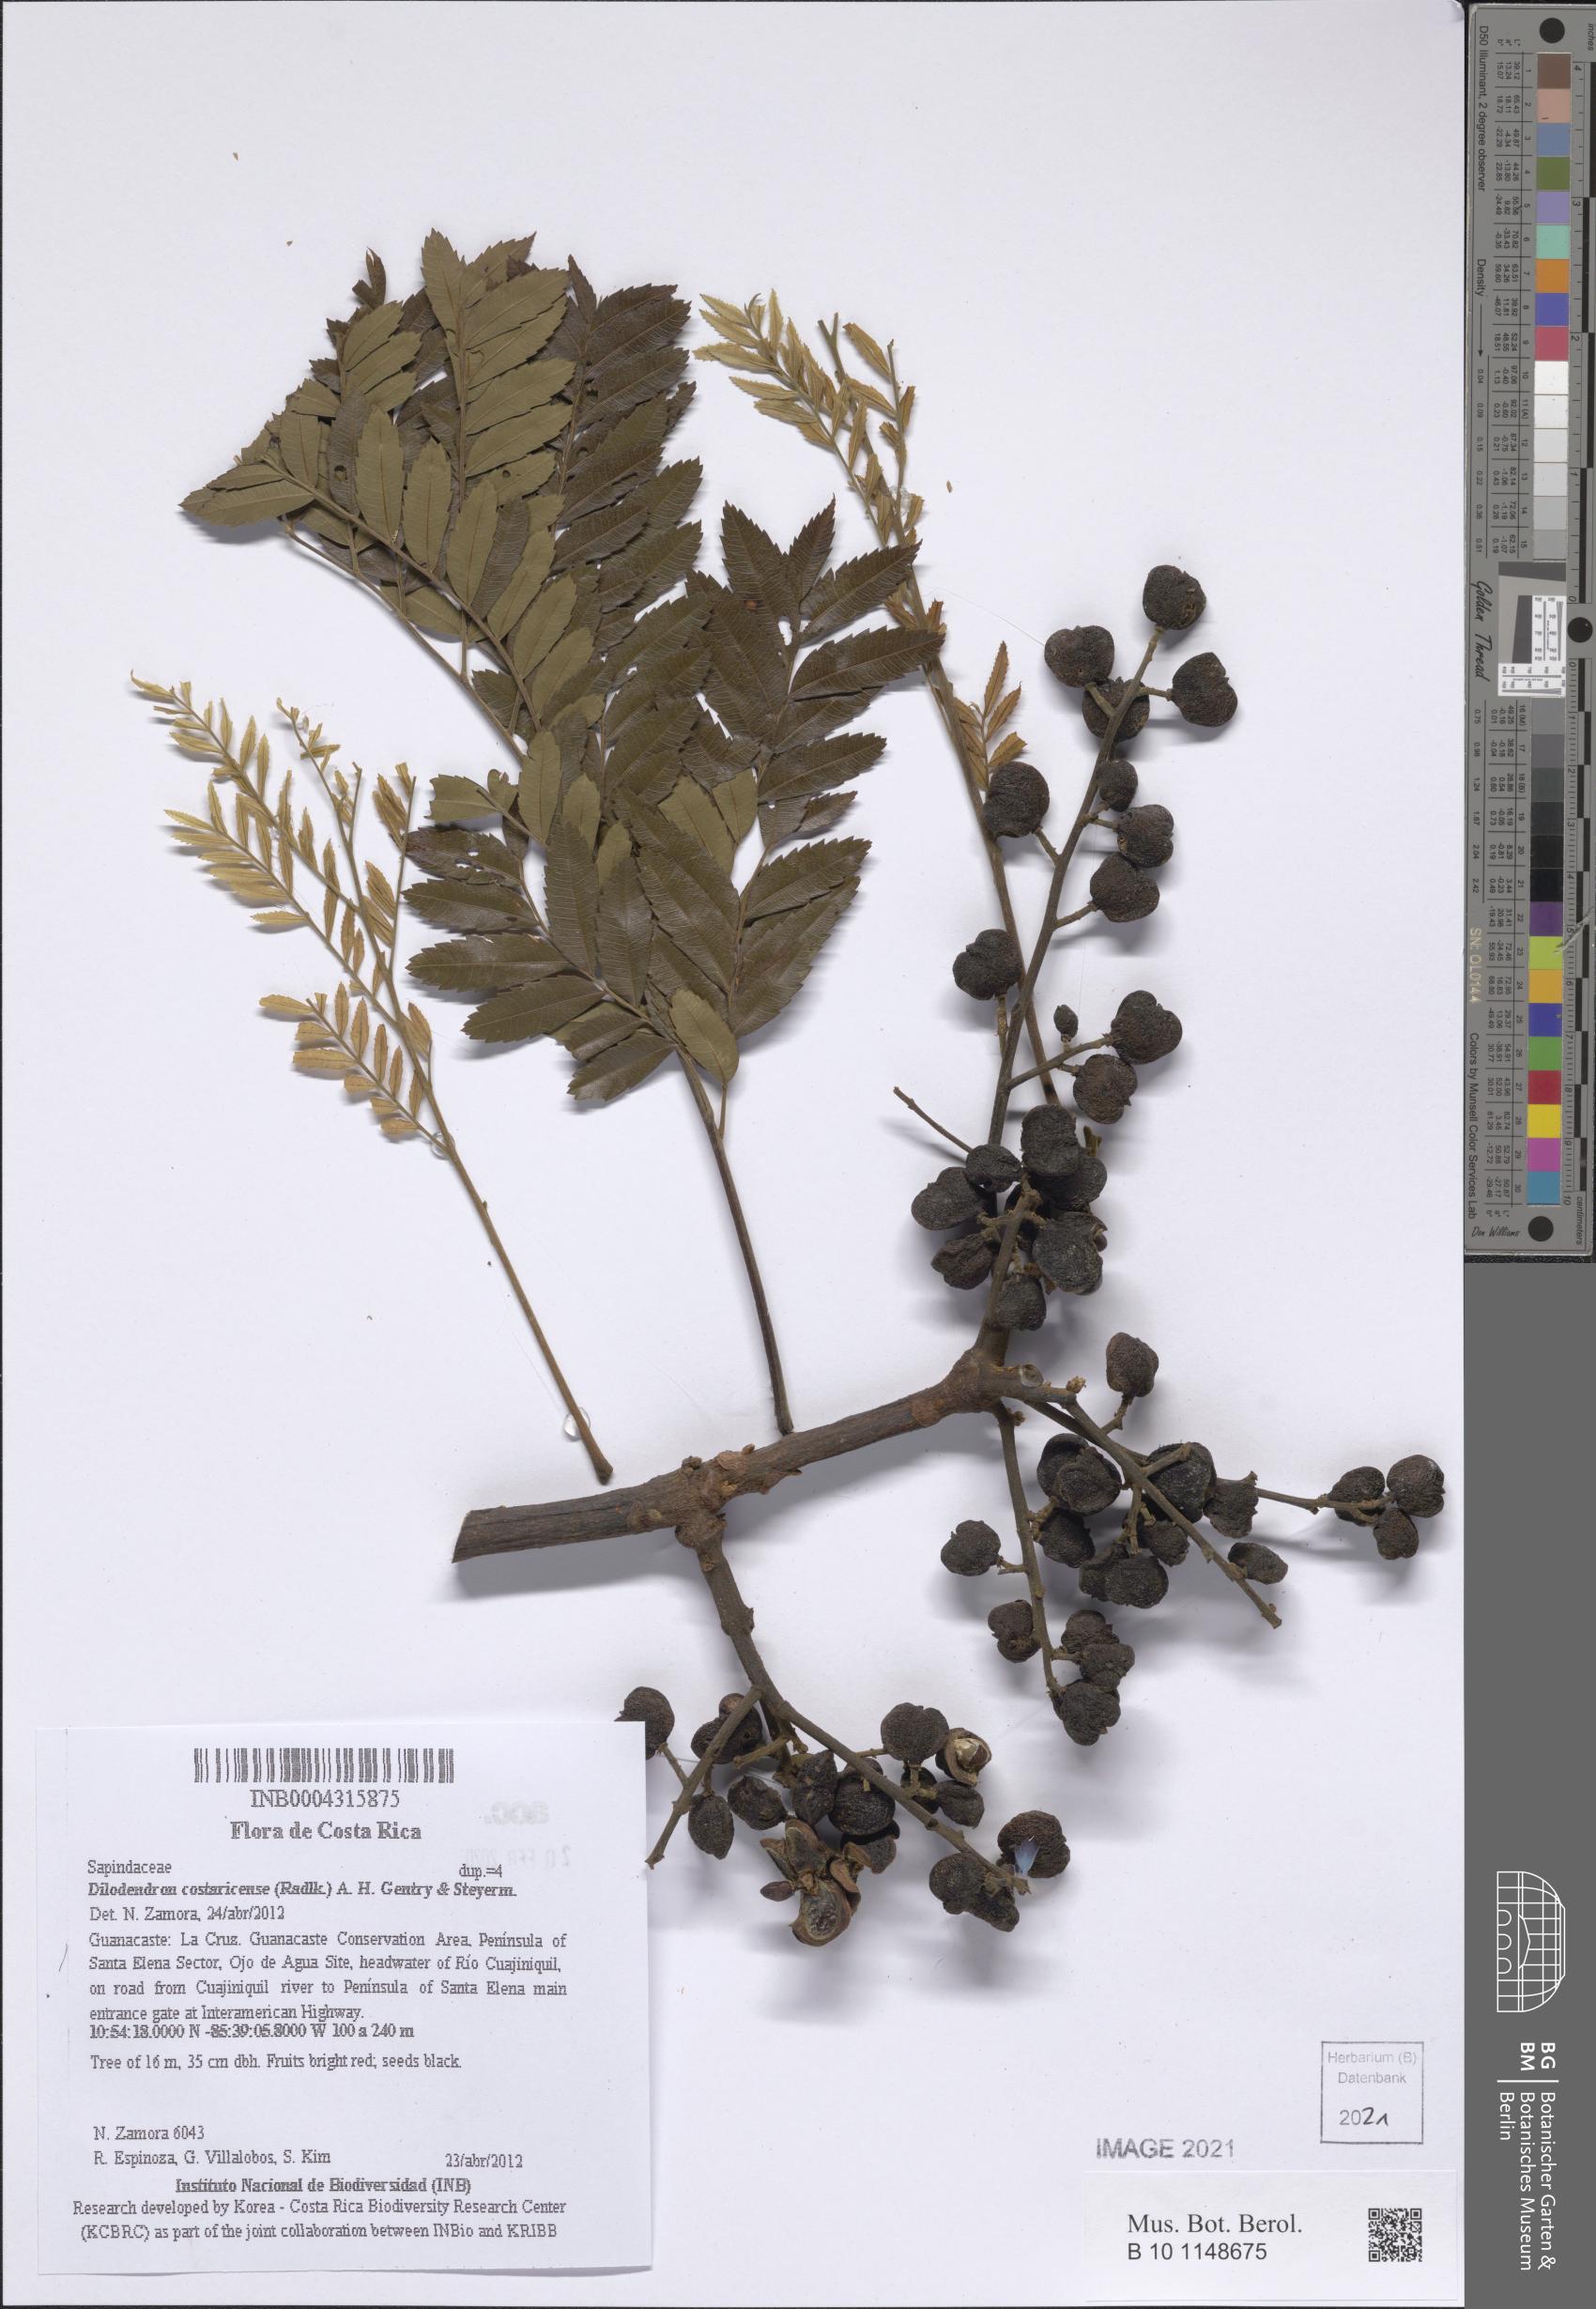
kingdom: Plantae
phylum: Tracheophyta
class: Magnoliopsida
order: Sapindales
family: Sapindaceae
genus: Dilodendron
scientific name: Dilodendron costaricense
